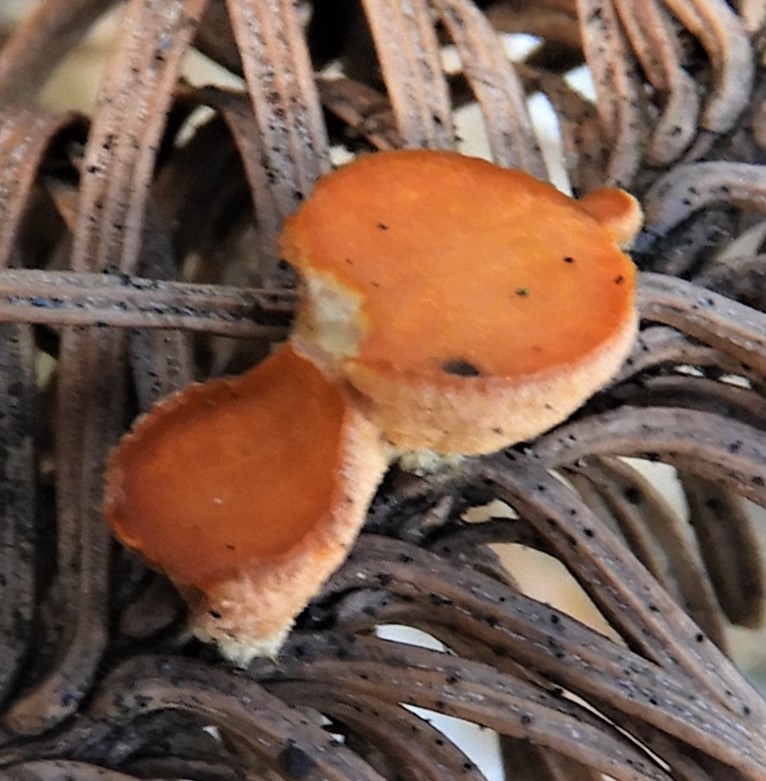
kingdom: Fungi
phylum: Ascomycota
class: Pezizomycetes
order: Pezizales
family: Sarcoscyphaceae
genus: Pithya
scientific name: Pithya vulgaris
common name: stor dukatbæger
